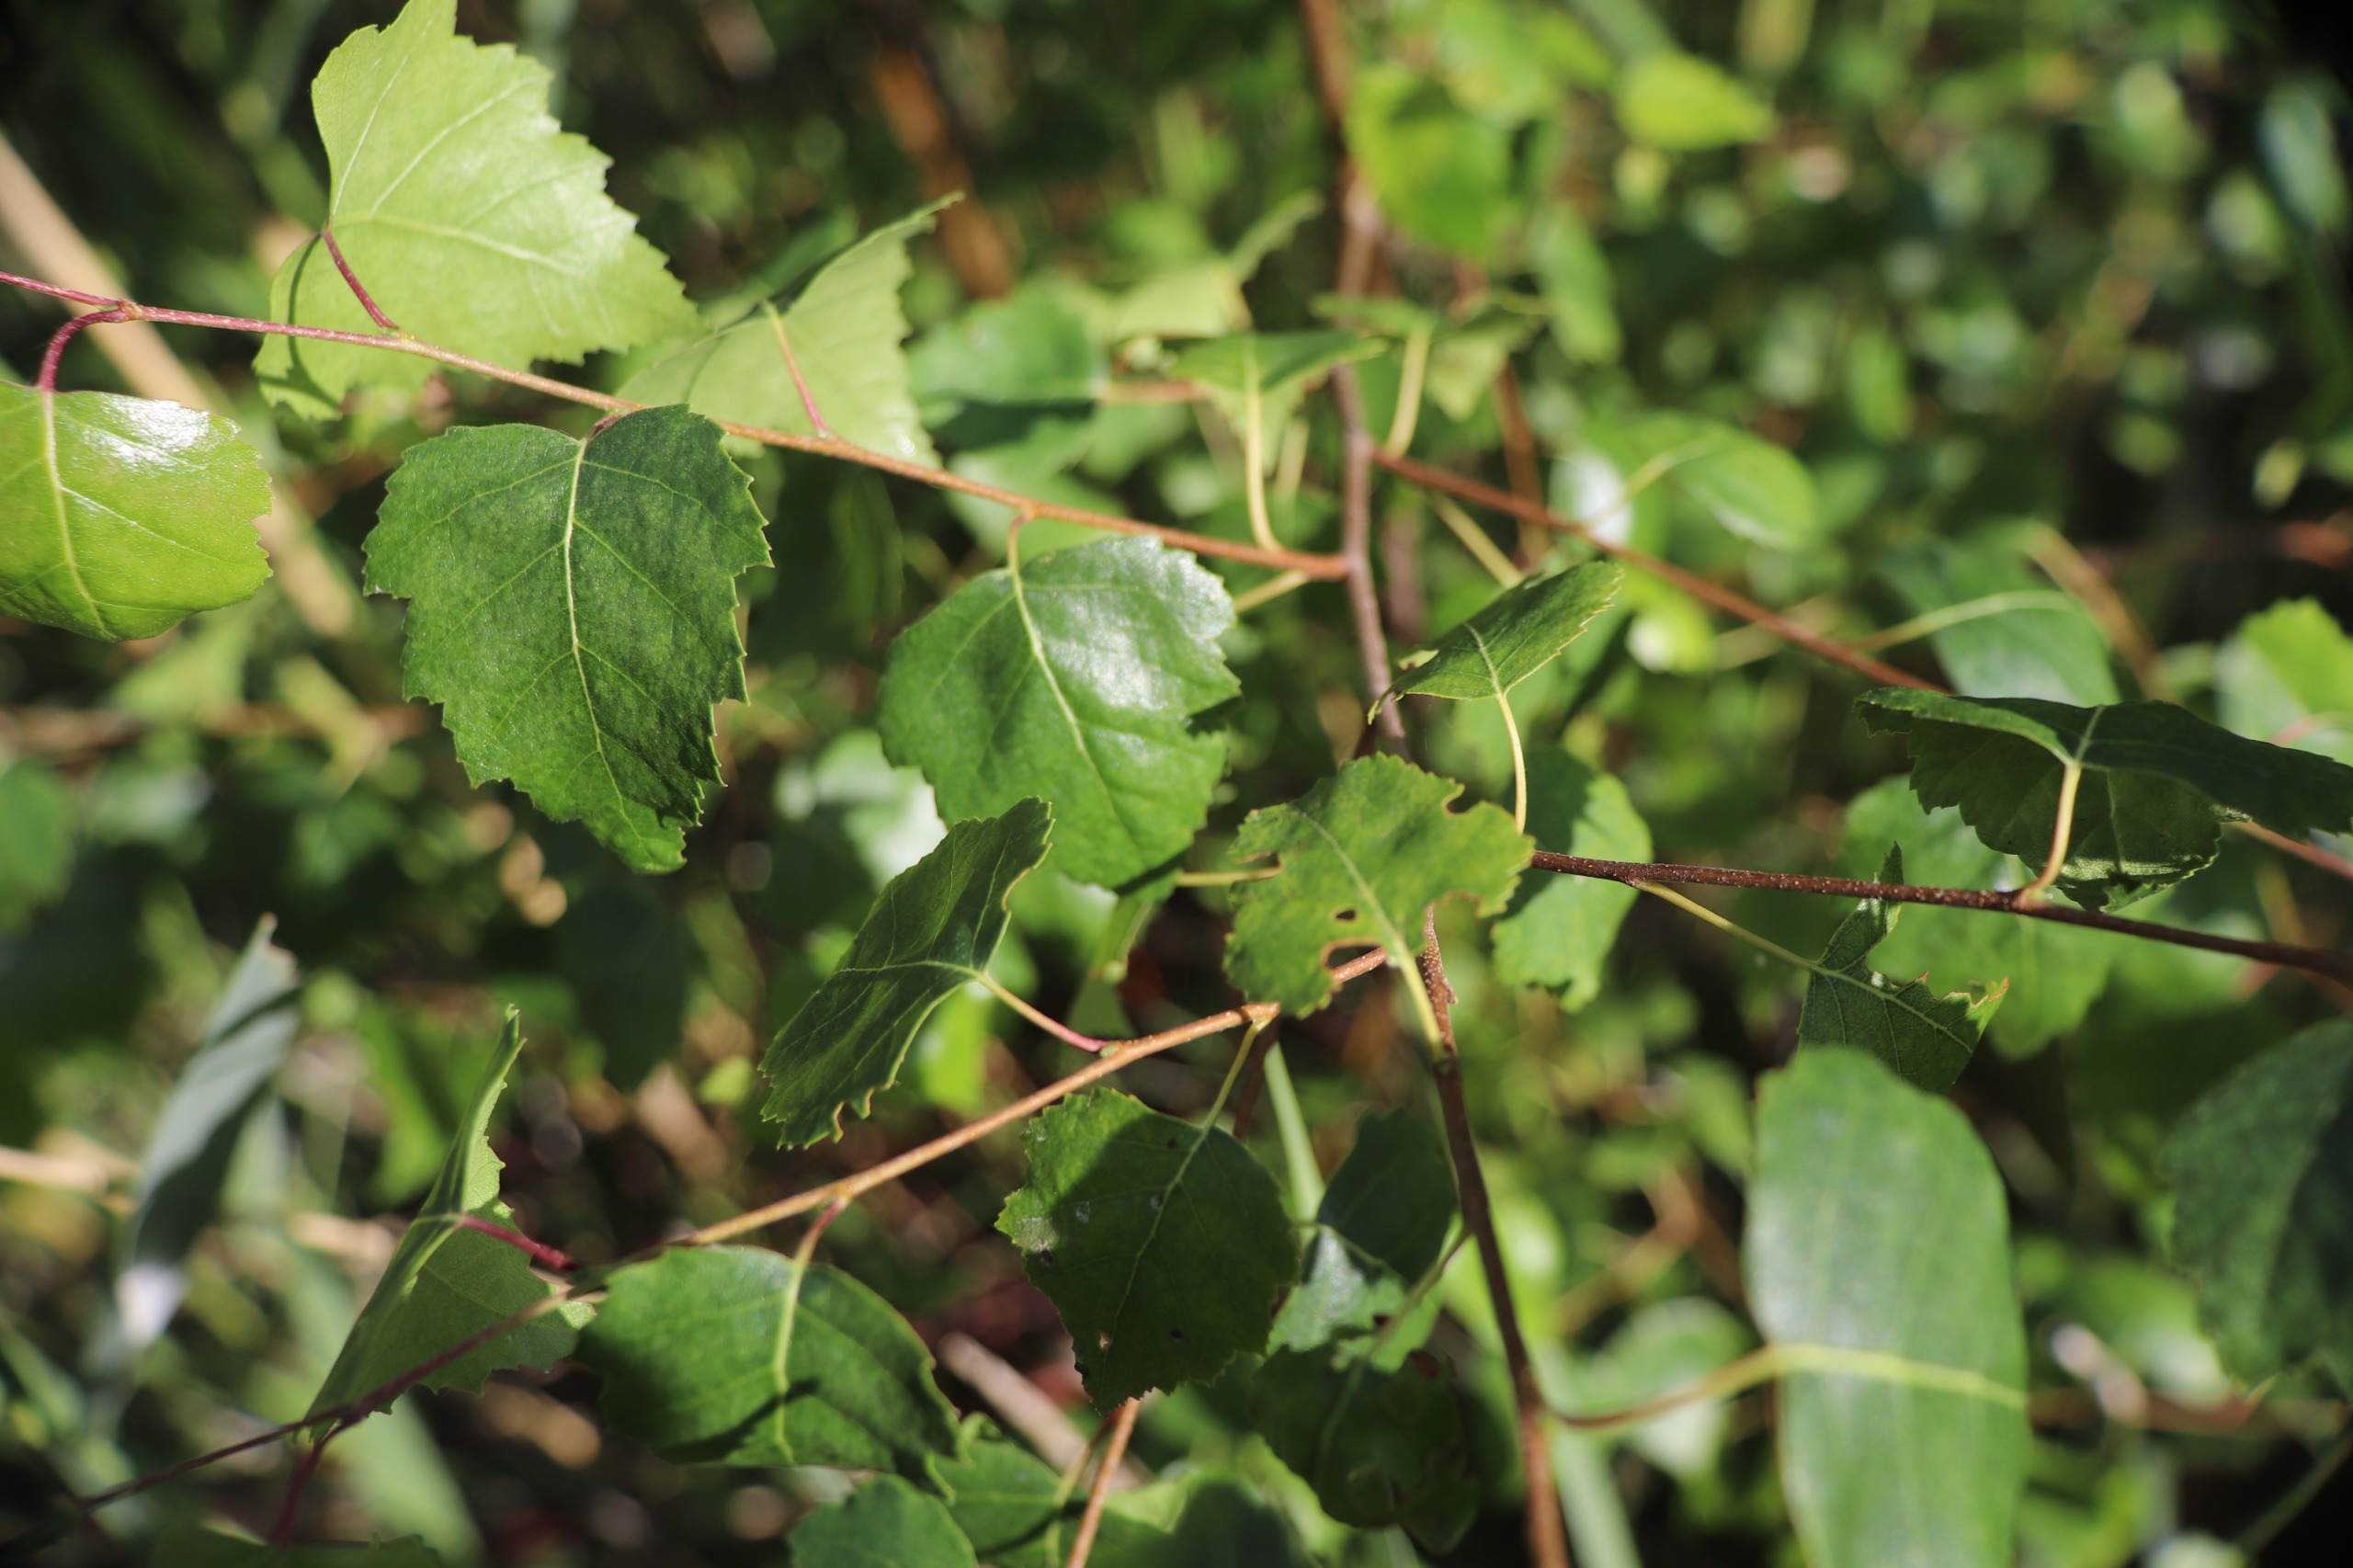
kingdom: Plantae
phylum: Tracheophyta
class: Magnoliopsida
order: Fagales
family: Betulaceae
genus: Betula
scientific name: Betula pendula
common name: Vorte-birk
